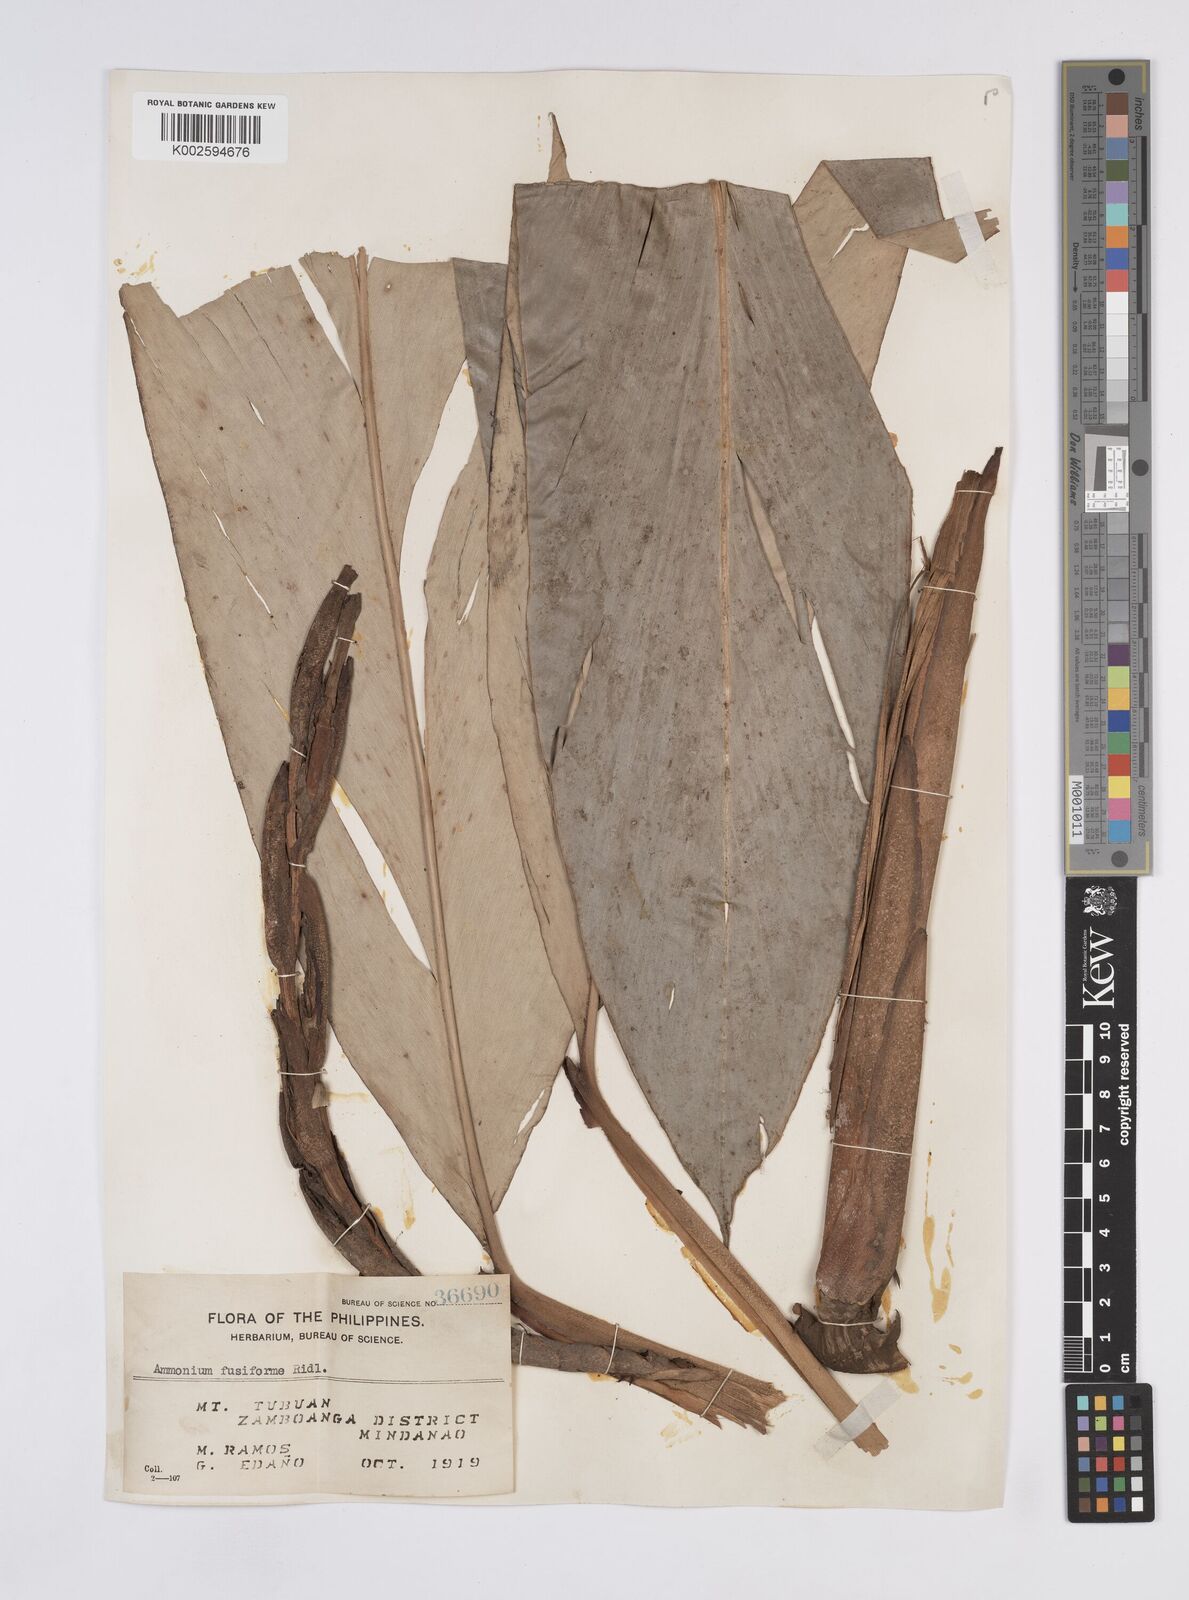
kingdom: Plantae
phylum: Tracheophyta
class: Liliopsida
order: Zingiberales
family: Zingiberaceae
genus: Geocharis
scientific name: Geocharis fusiformis
